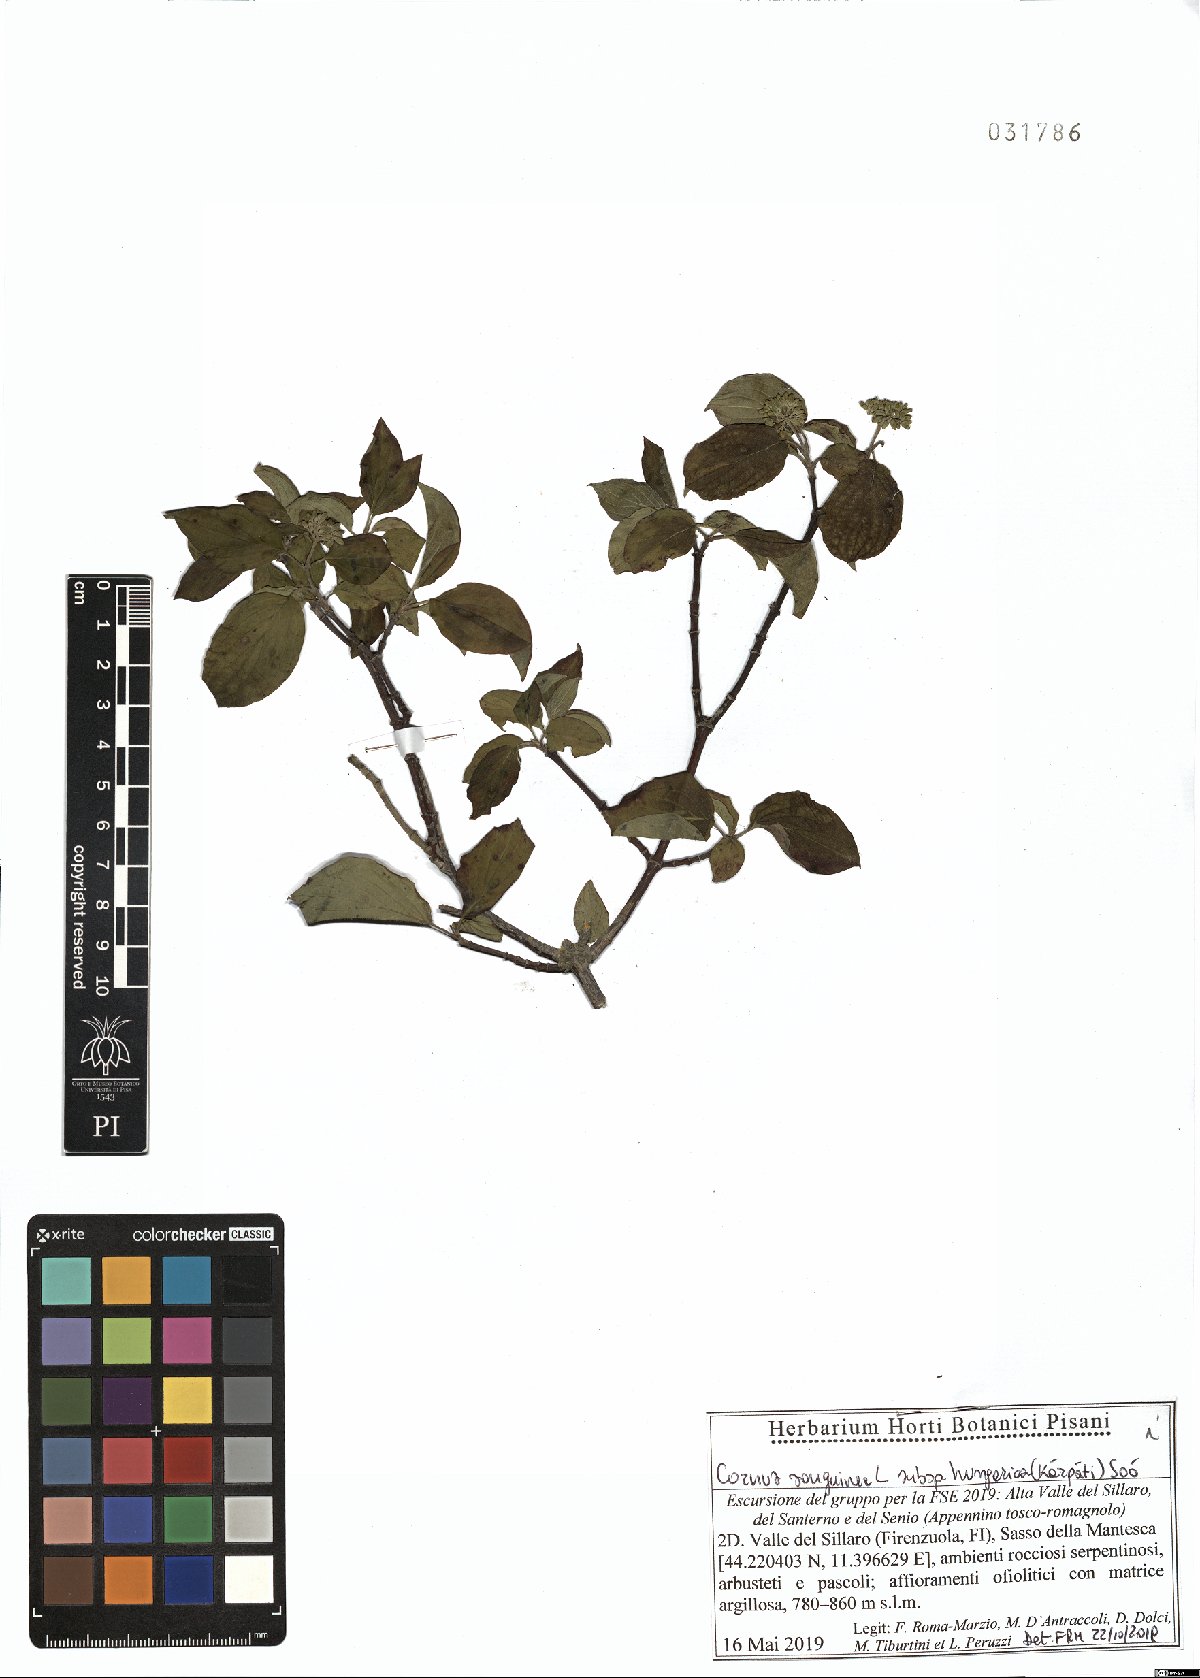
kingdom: Plantae
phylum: Tracheophyta
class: Magnoliopsida
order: Cornales
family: Cornaceae
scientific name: Cornaceae
